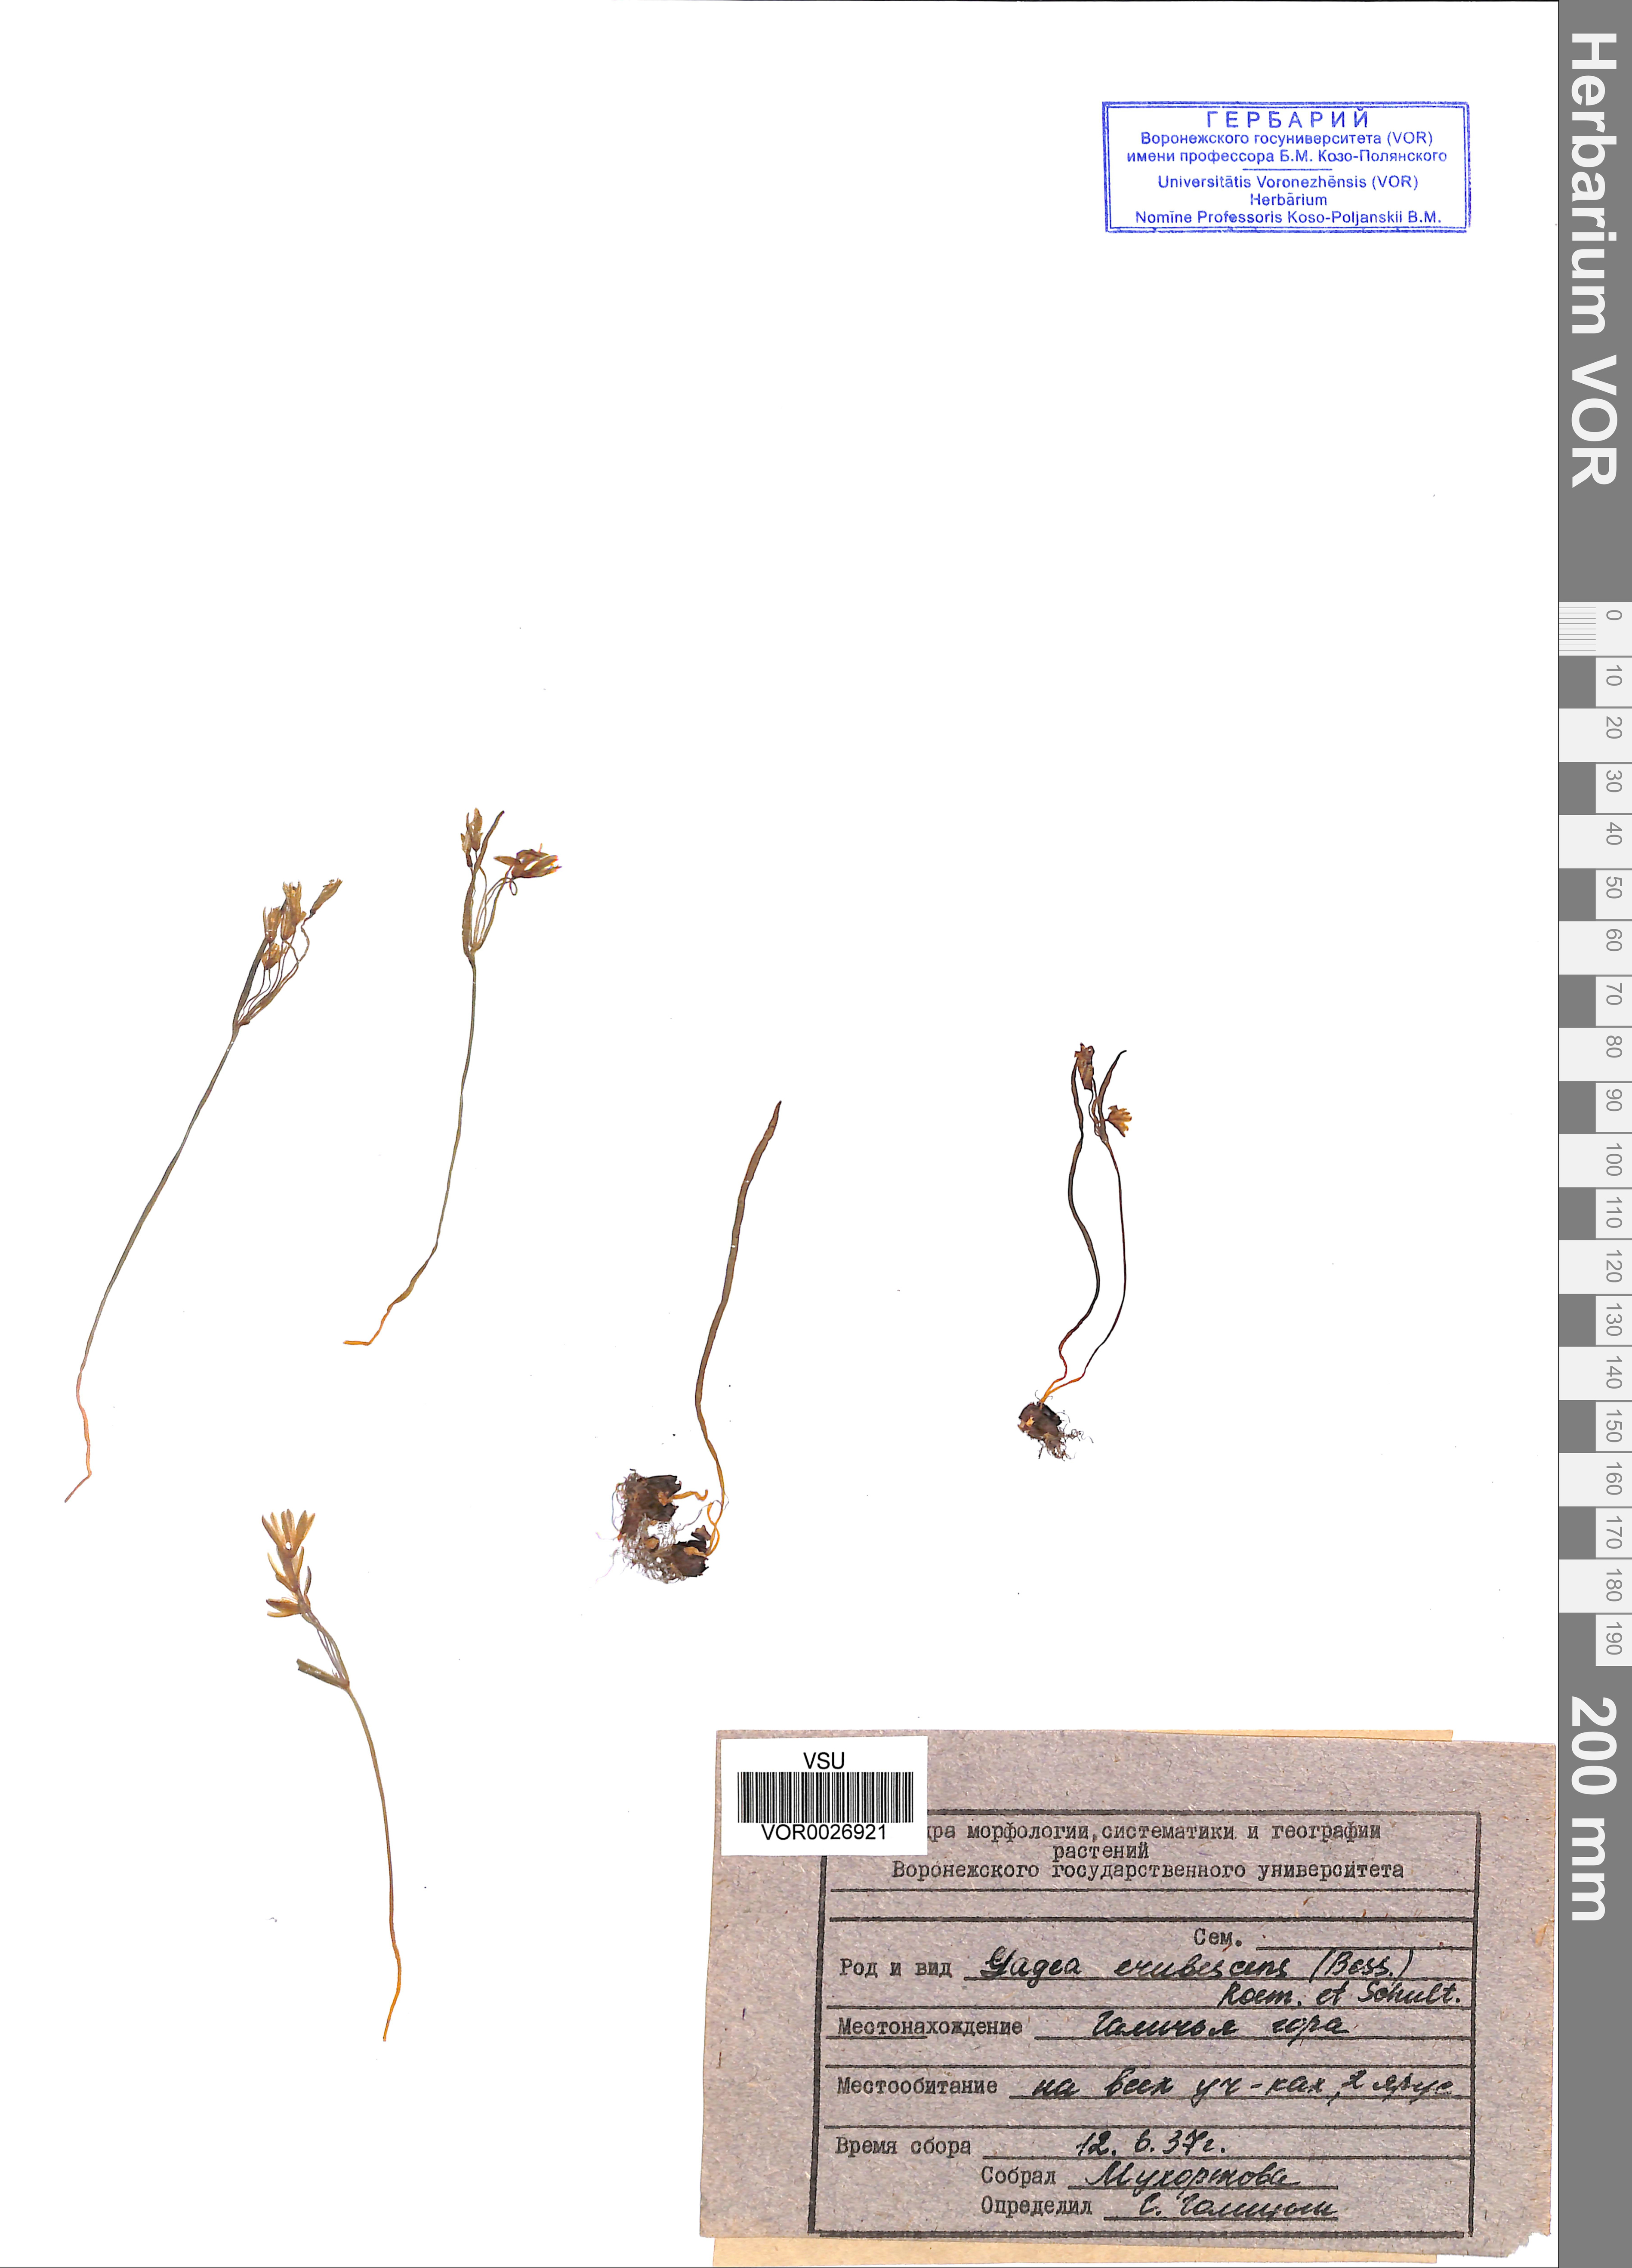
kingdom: Plantae
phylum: Tracheophyta
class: Liliopsida
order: Liliales
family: Liliaceae
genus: Gagea
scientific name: Gagea fragifera
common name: Lily
